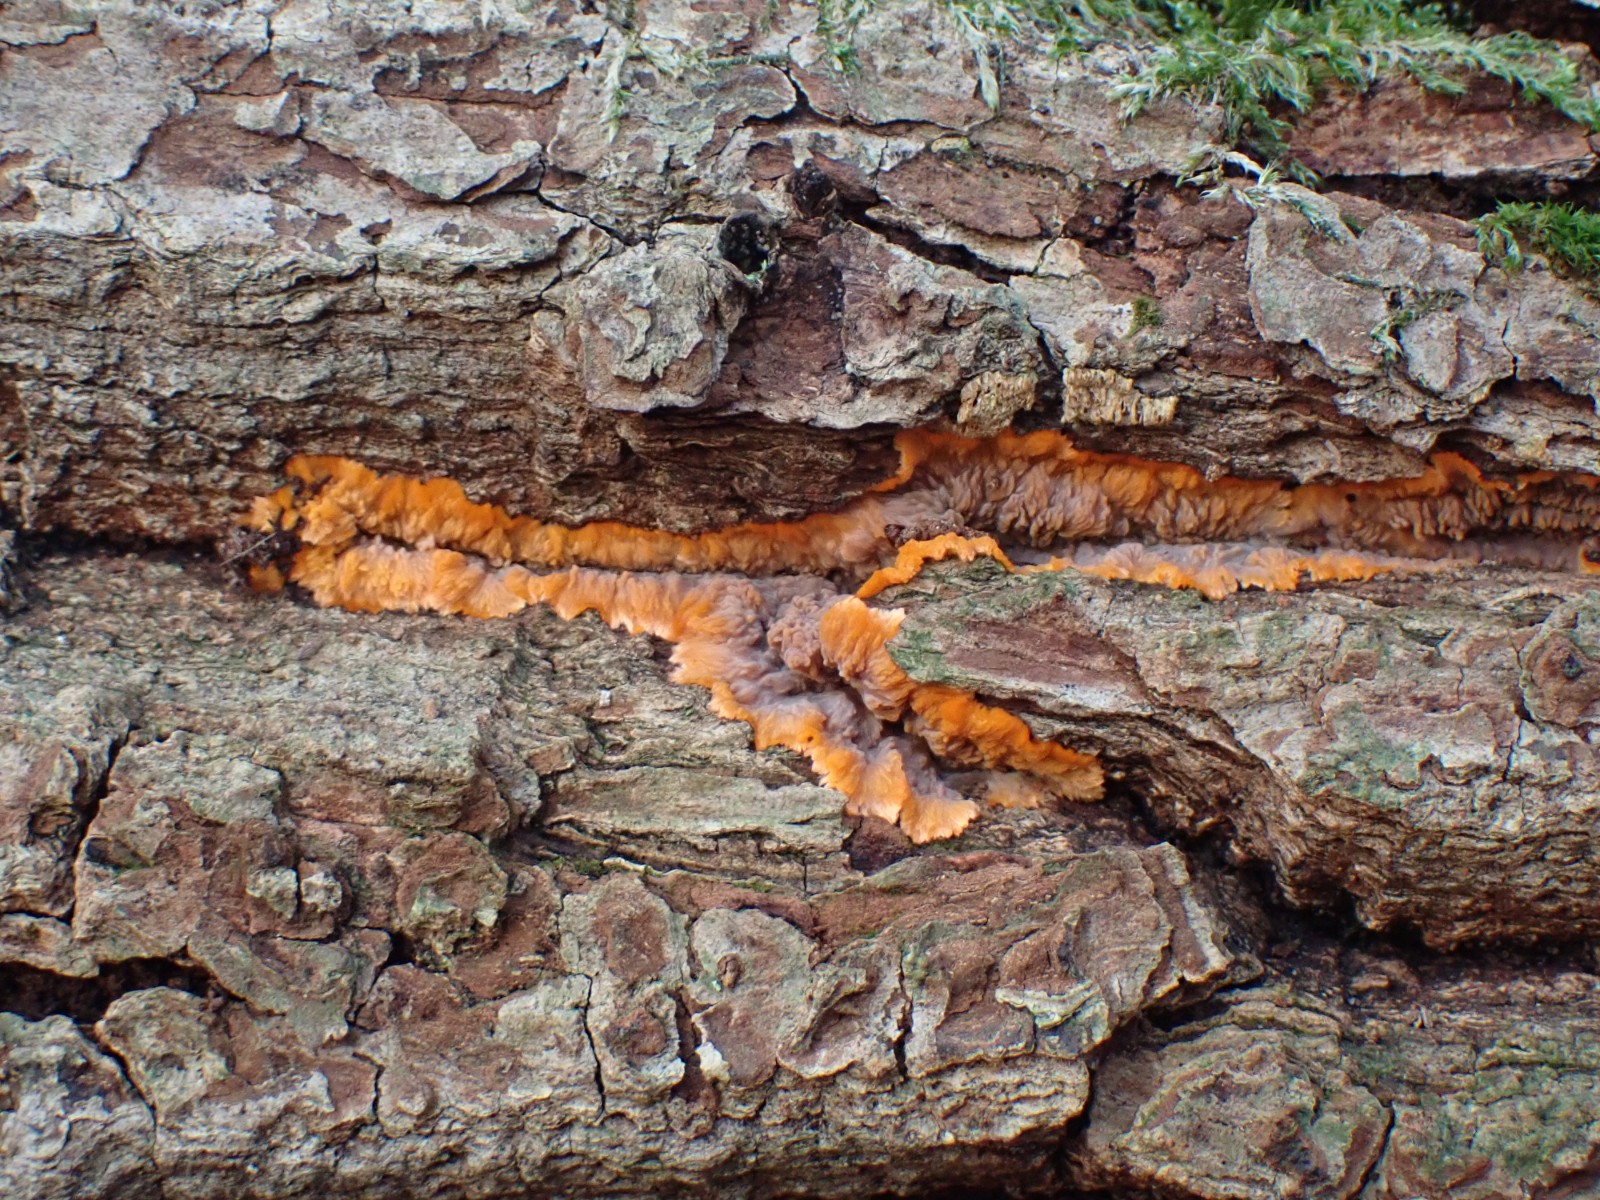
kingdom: Fungi
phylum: Basidiomycota
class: Agaricomycetes
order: Polyporales
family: Meruliaceae
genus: Phlebia
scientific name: Phlebia radiata
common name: stråle-åresvamp
